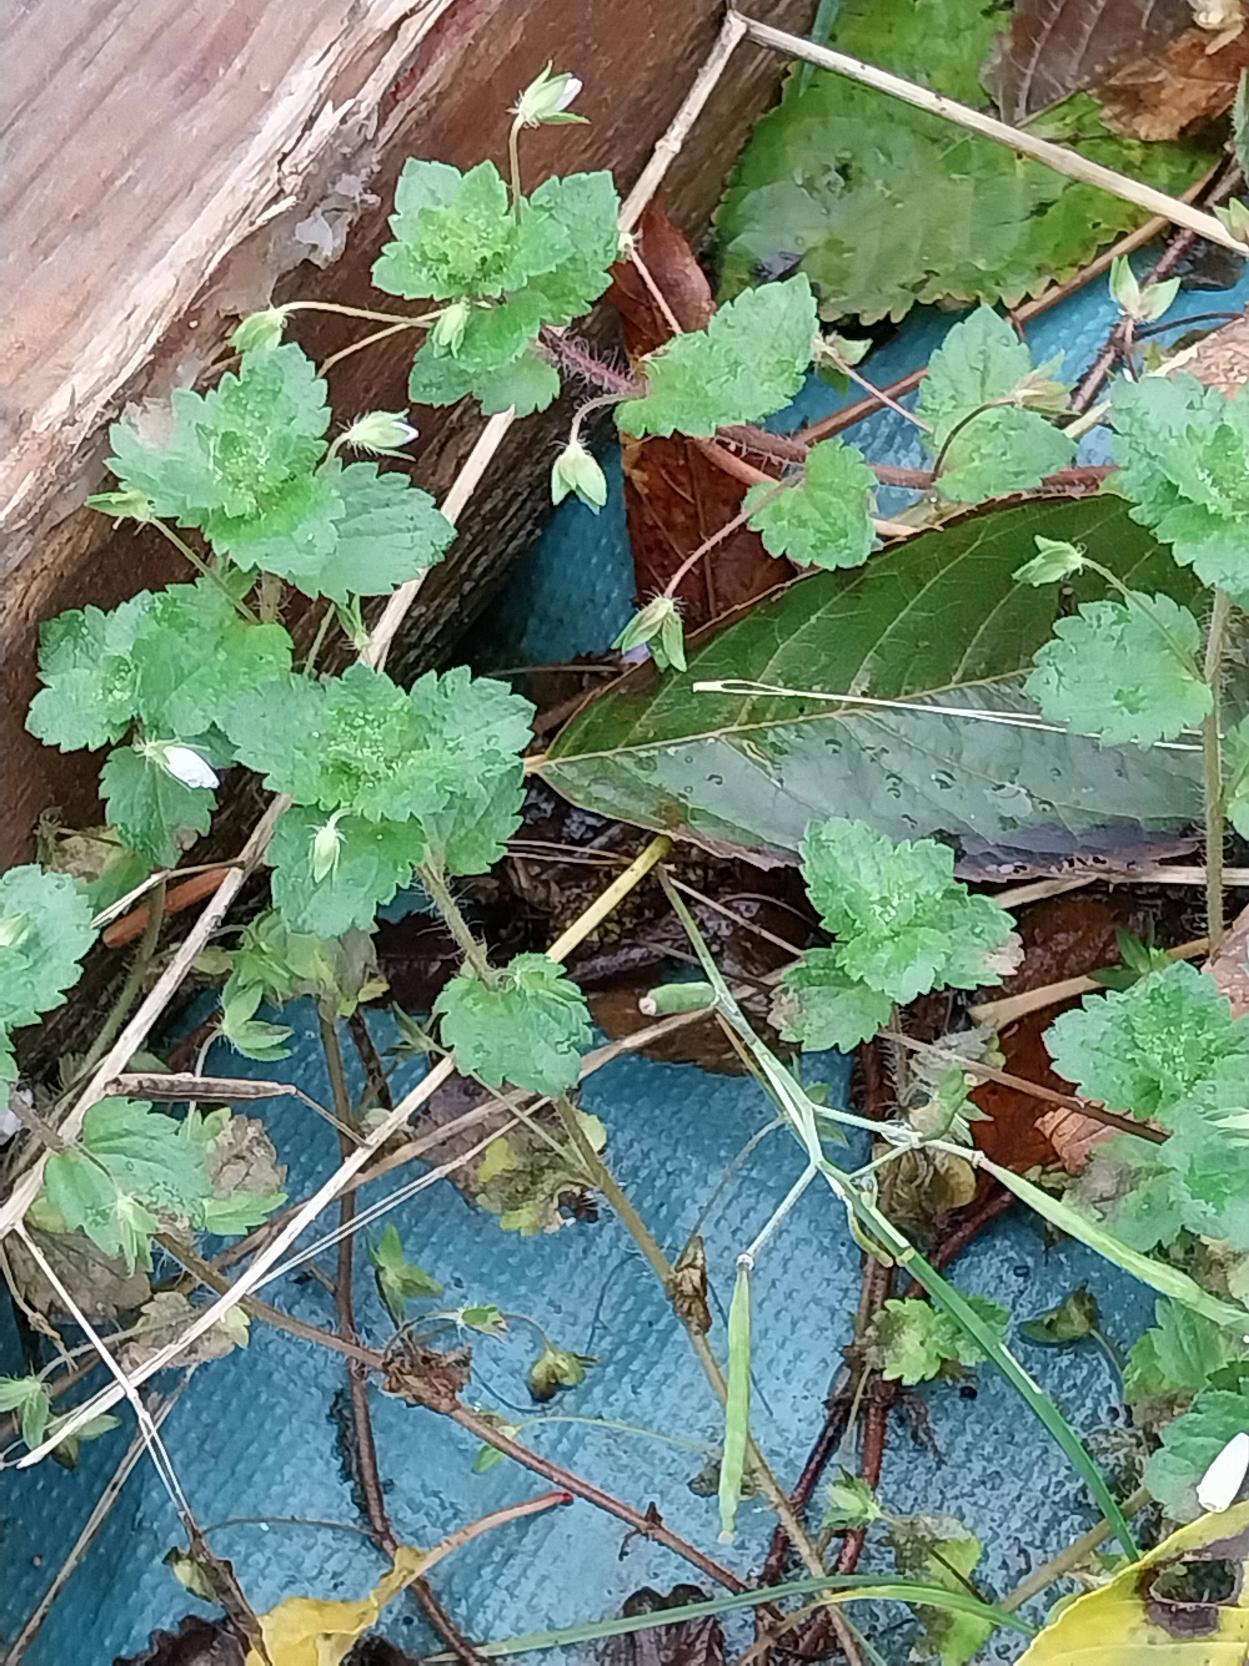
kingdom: Plantae
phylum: Tracheophyta
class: Magnoliopsida
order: Lamiales
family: Plantaginaceae
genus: Veronica
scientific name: Veronica persica
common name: Storkronet ærenpris
